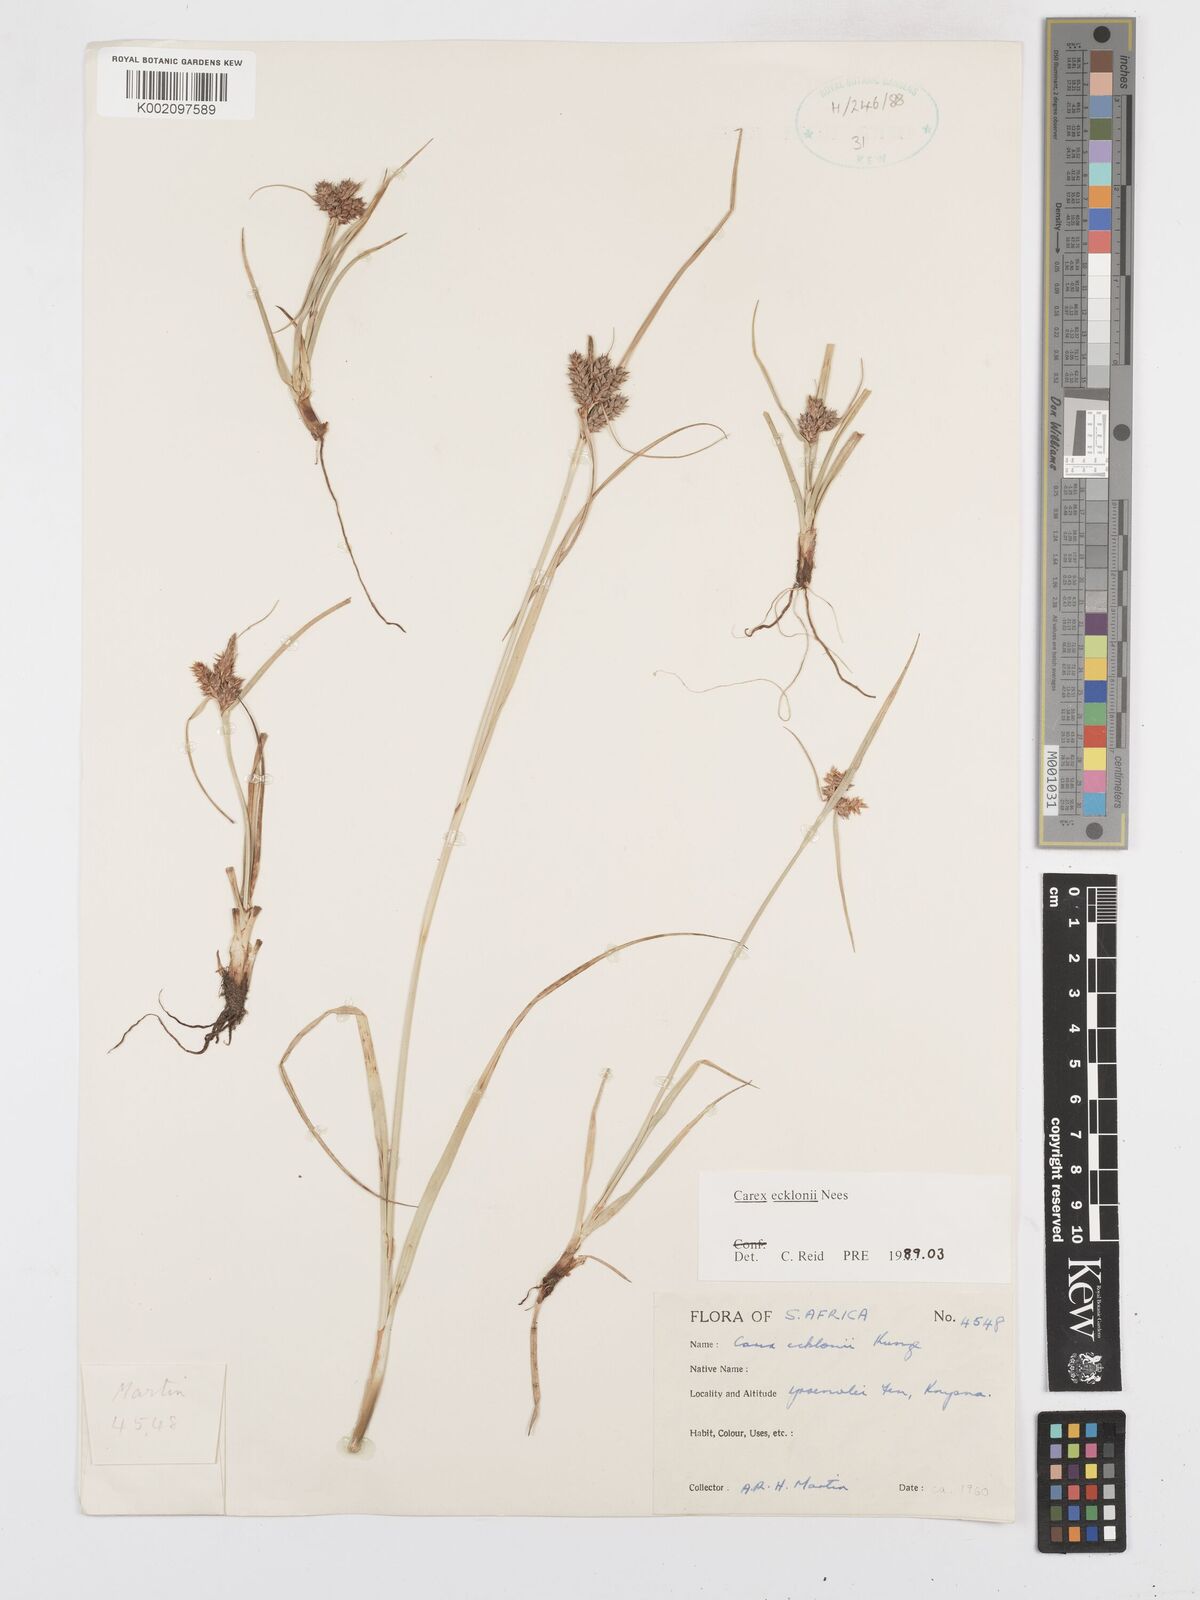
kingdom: Plantae
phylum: Tracheophyta
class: Liliopsida
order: Poales
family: Cyperaceae
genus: Carex
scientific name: Carex extensa
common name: Long-bracted sedge
